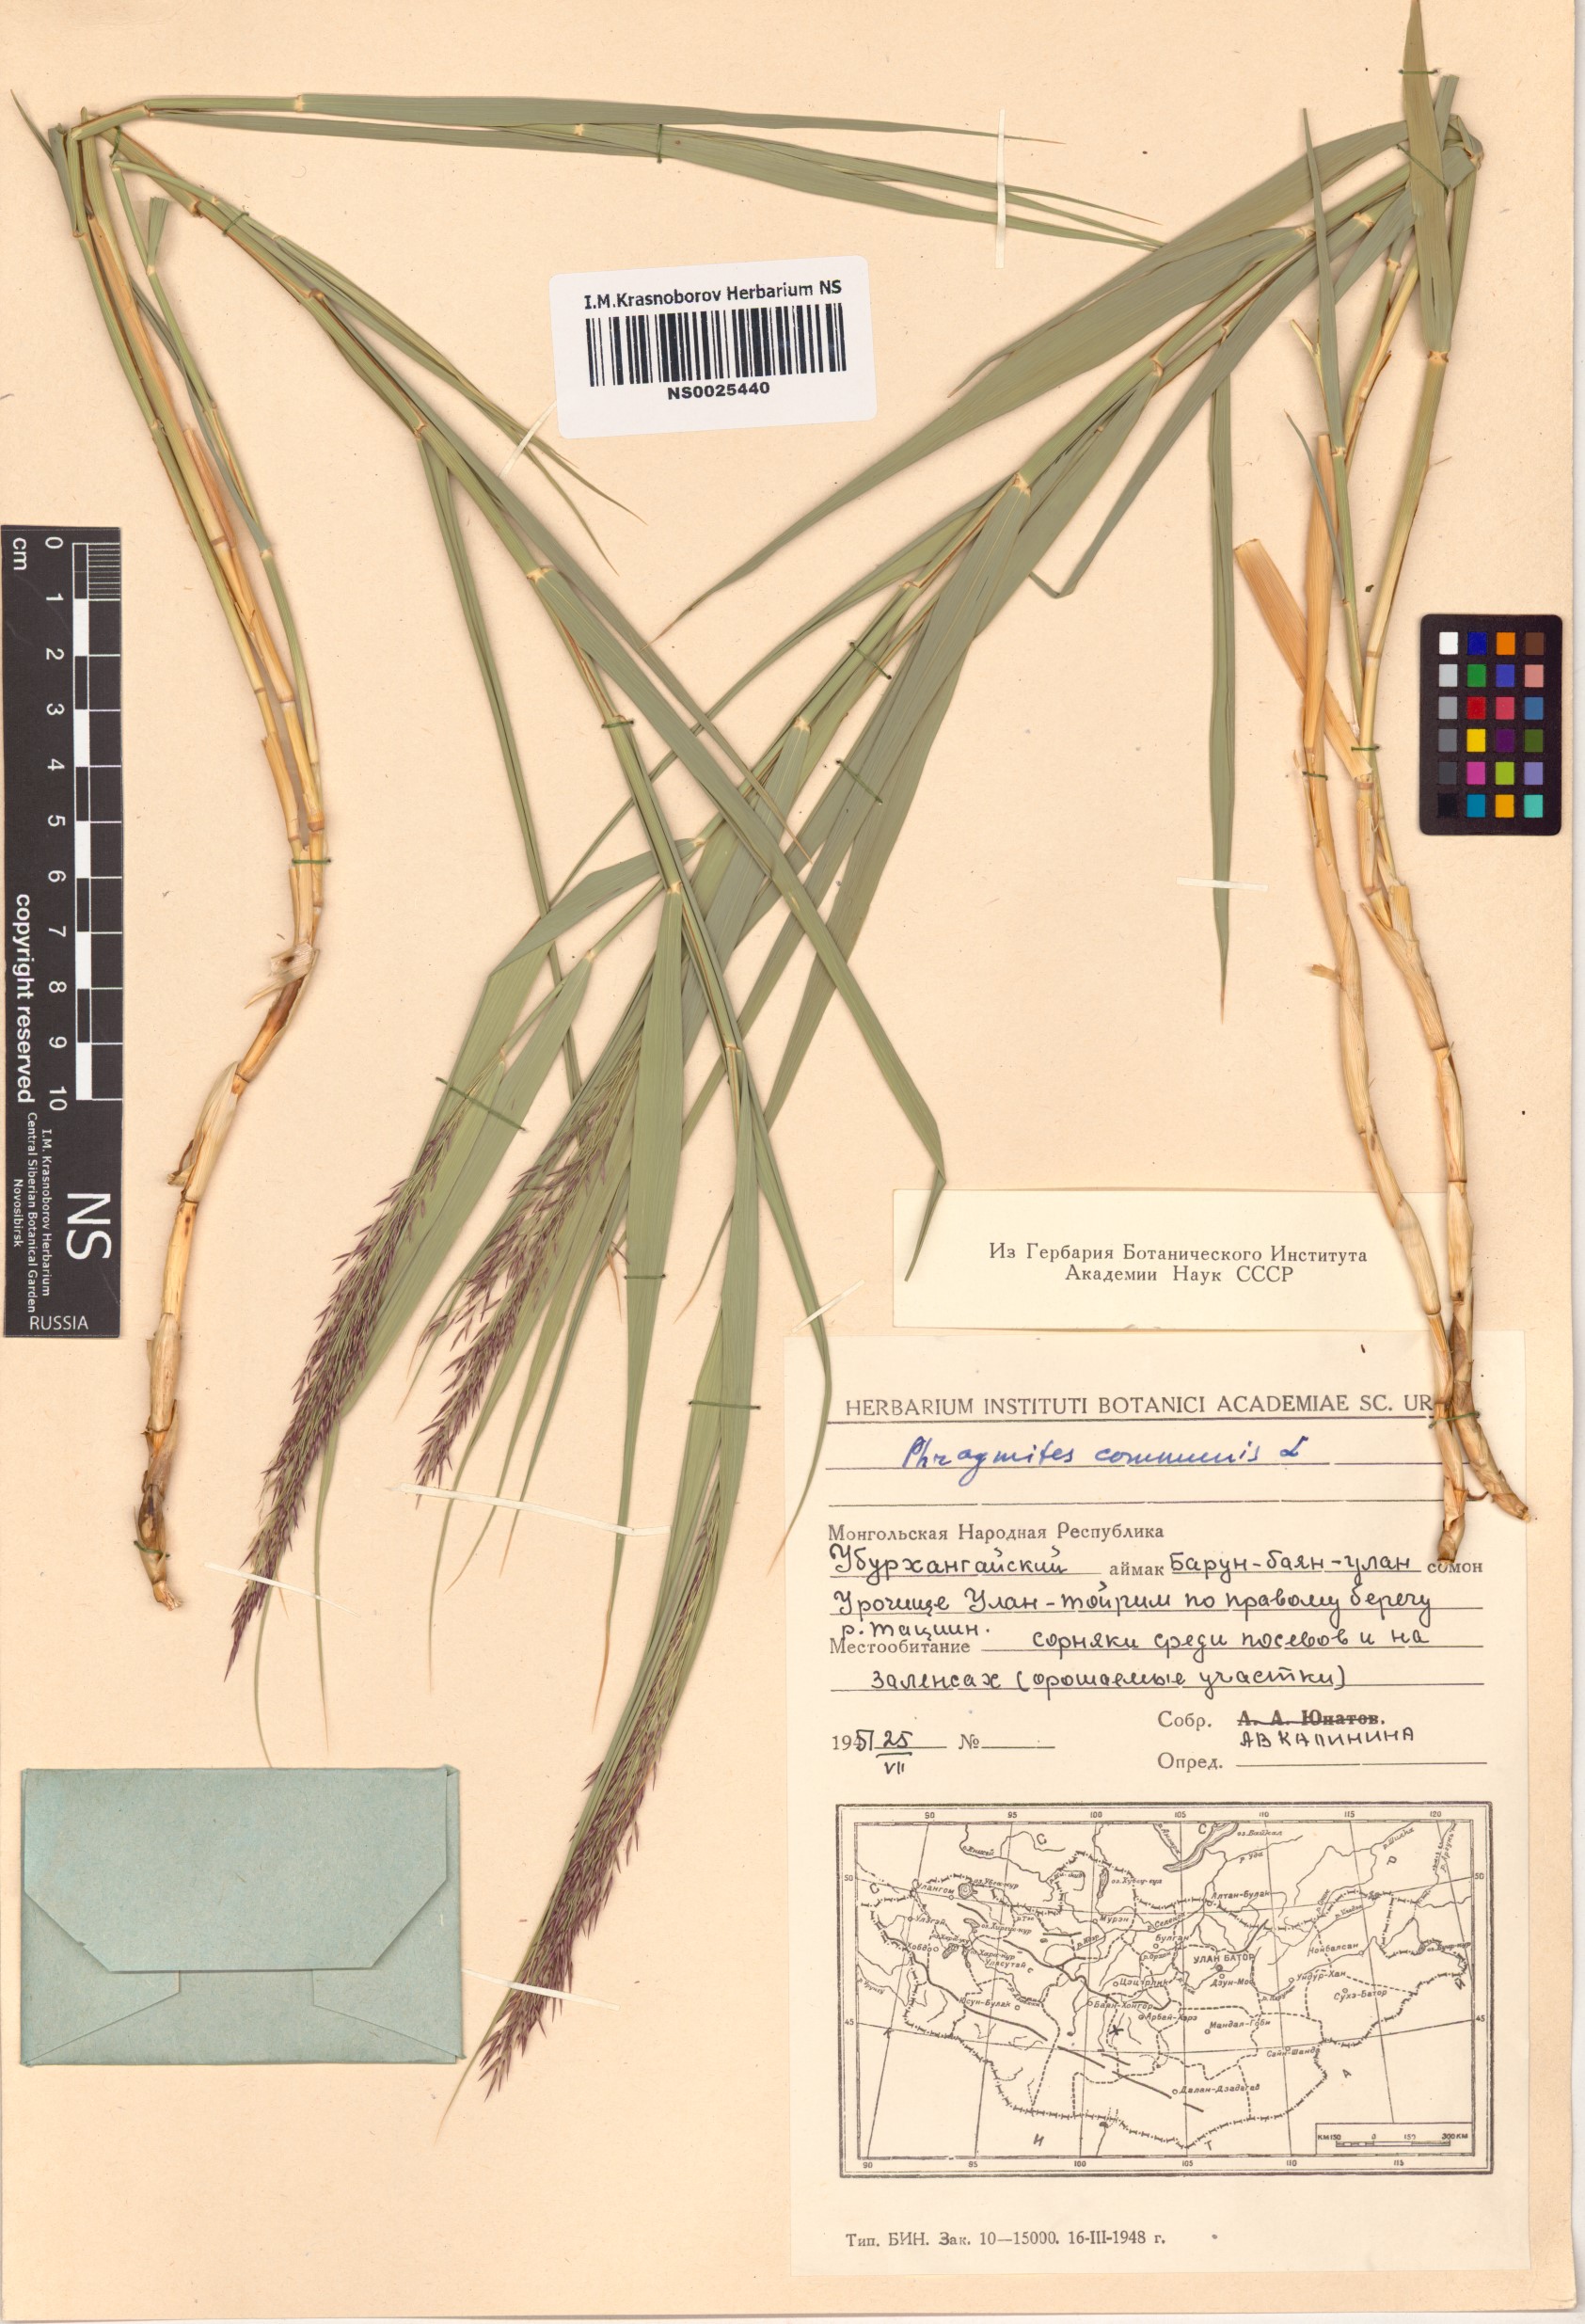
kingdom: Plantae
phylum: Tracheophyta
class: Liliopsida
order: Poales
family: Poaceae
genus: Phragmites
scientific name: Phragmites australis
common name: Common reed
